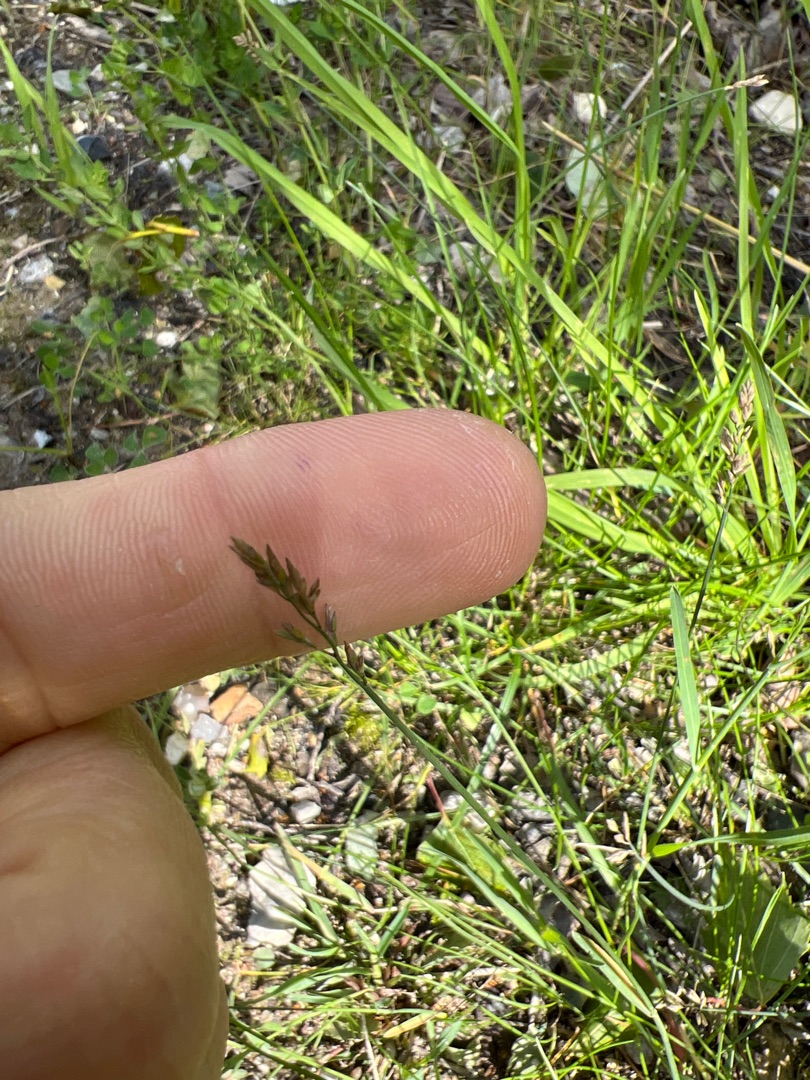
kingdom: Plantae
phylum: Tracheophyta
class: Liliopsida
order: Poales
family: Poaceae
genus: Poa
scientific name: Poa compressa
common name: Fladstrået rapgræs
